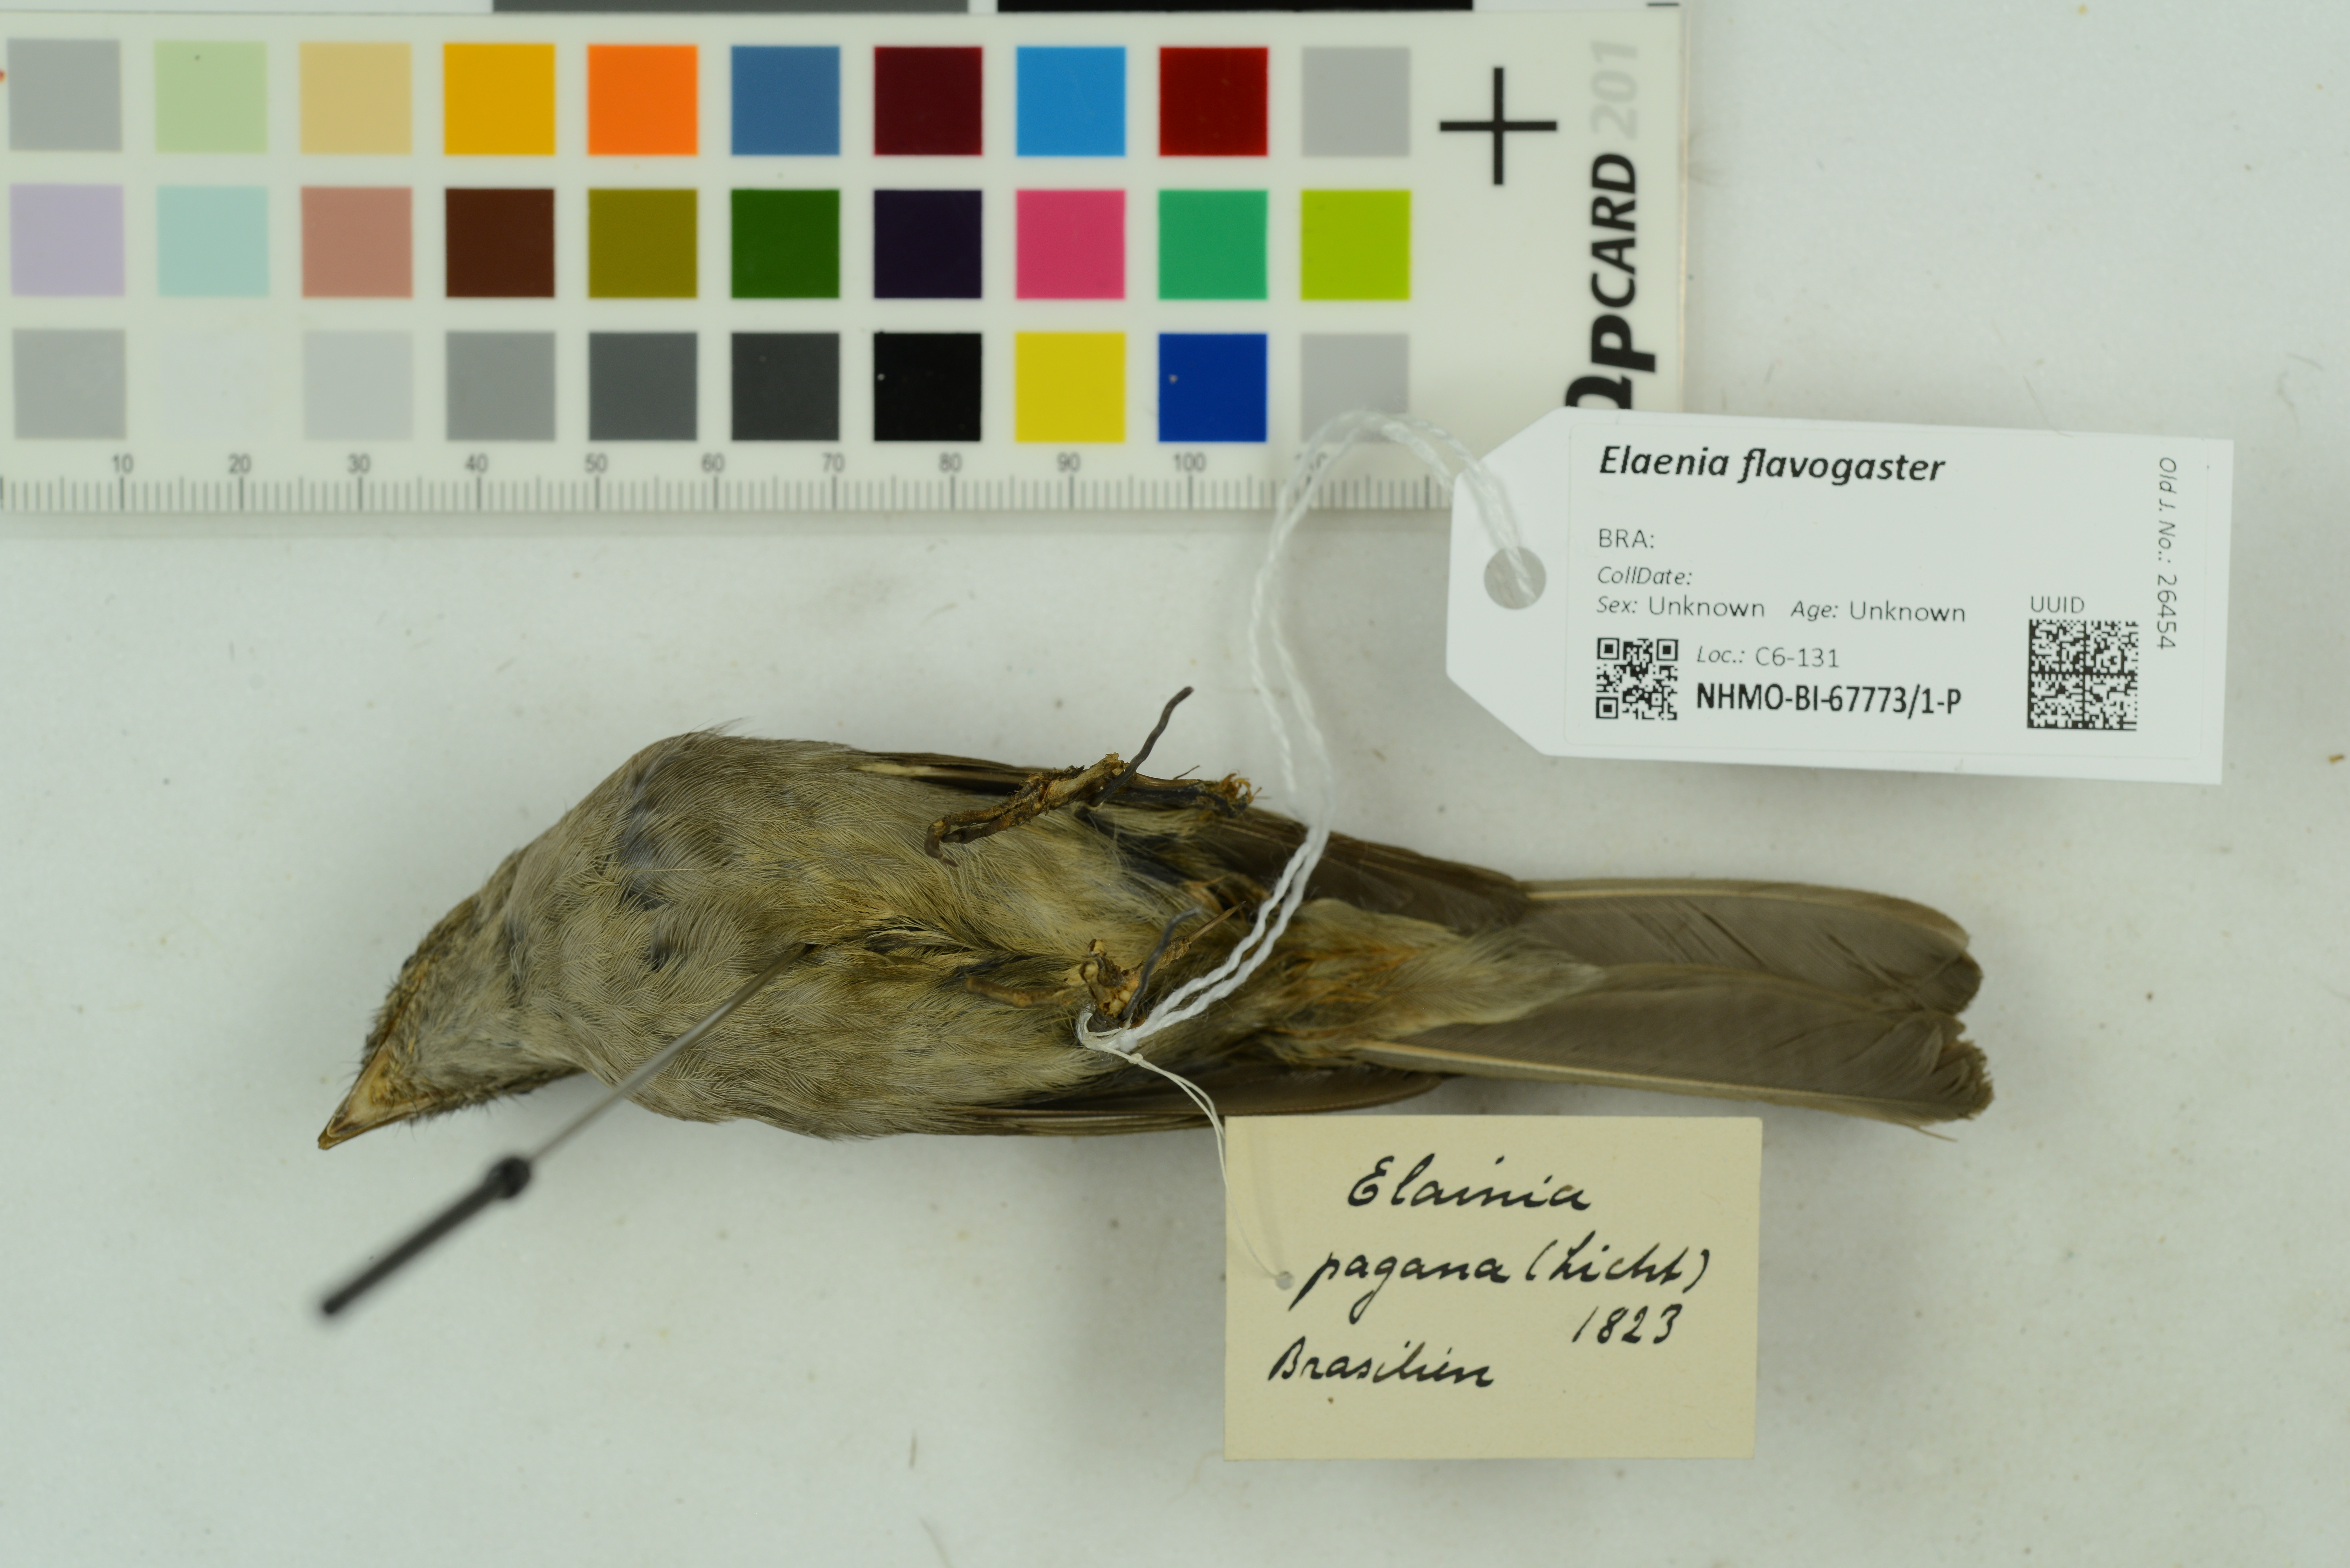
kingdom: Animalia
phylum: Chordata
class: Aves
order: Passeriformes
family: Tyrannidae
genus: Elaenia
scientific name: Elaenia flavogaster
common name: Yellow-bellied elaenia
